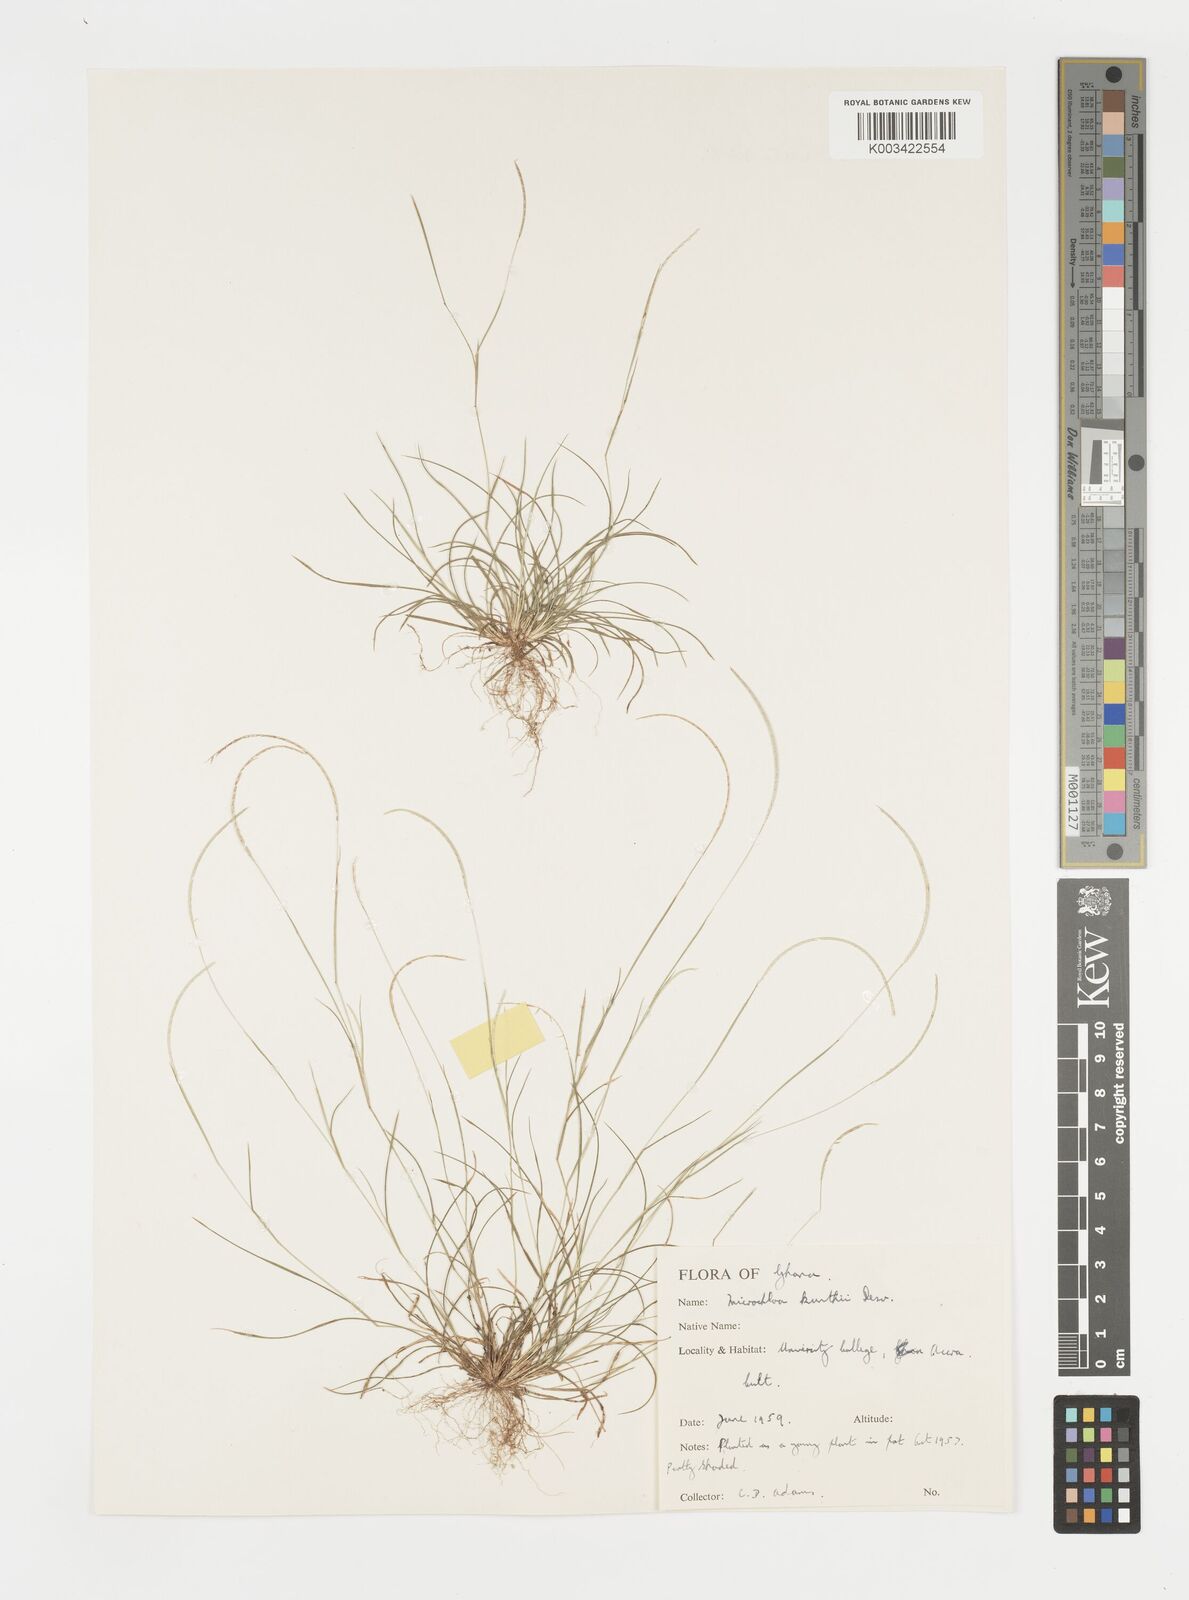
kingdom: Plantae
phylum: Tracheophyta
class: Liliopsida
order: Poales
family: Poaceae
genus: Microchloa
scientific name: Microchloa kunthii
